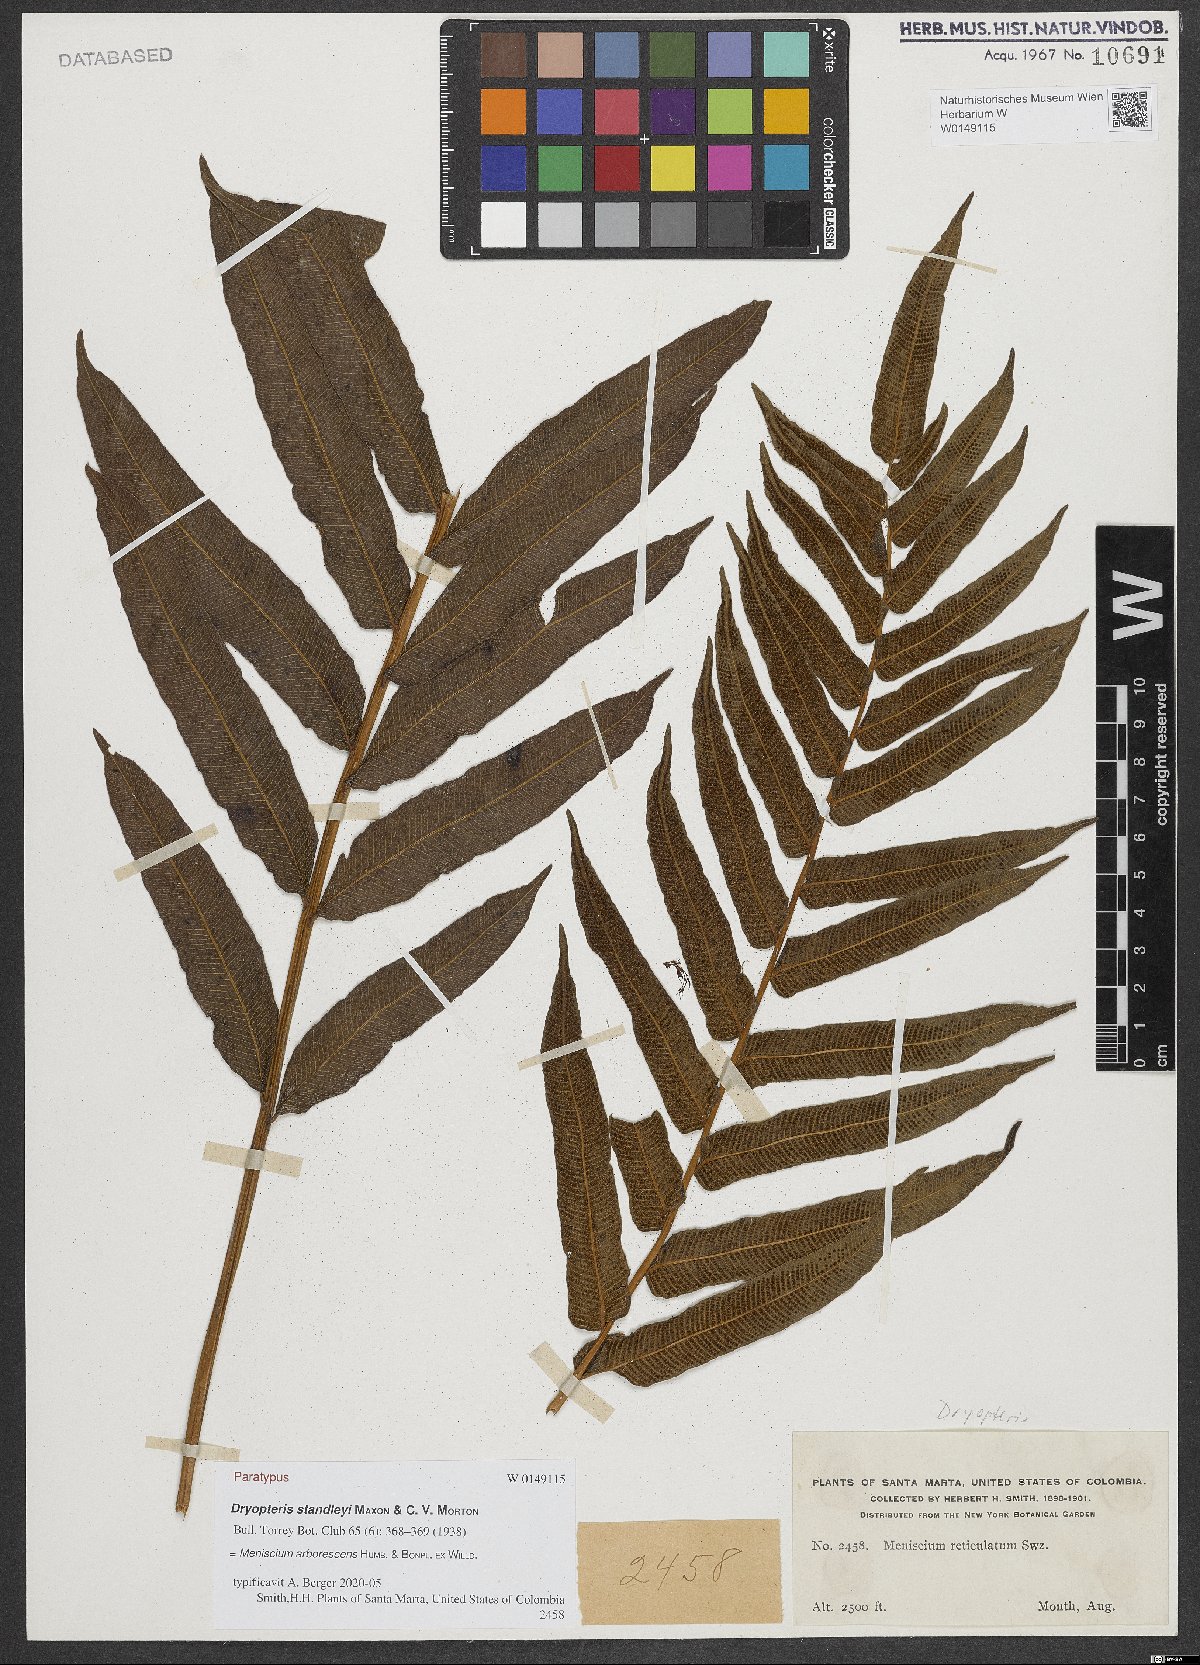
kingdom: Plantae
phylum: Tracheophyta
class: Polypodiopsida
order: Polypodiales
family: Thelypteridaceae
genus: Meniscium
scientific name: Meniscium arborescens
